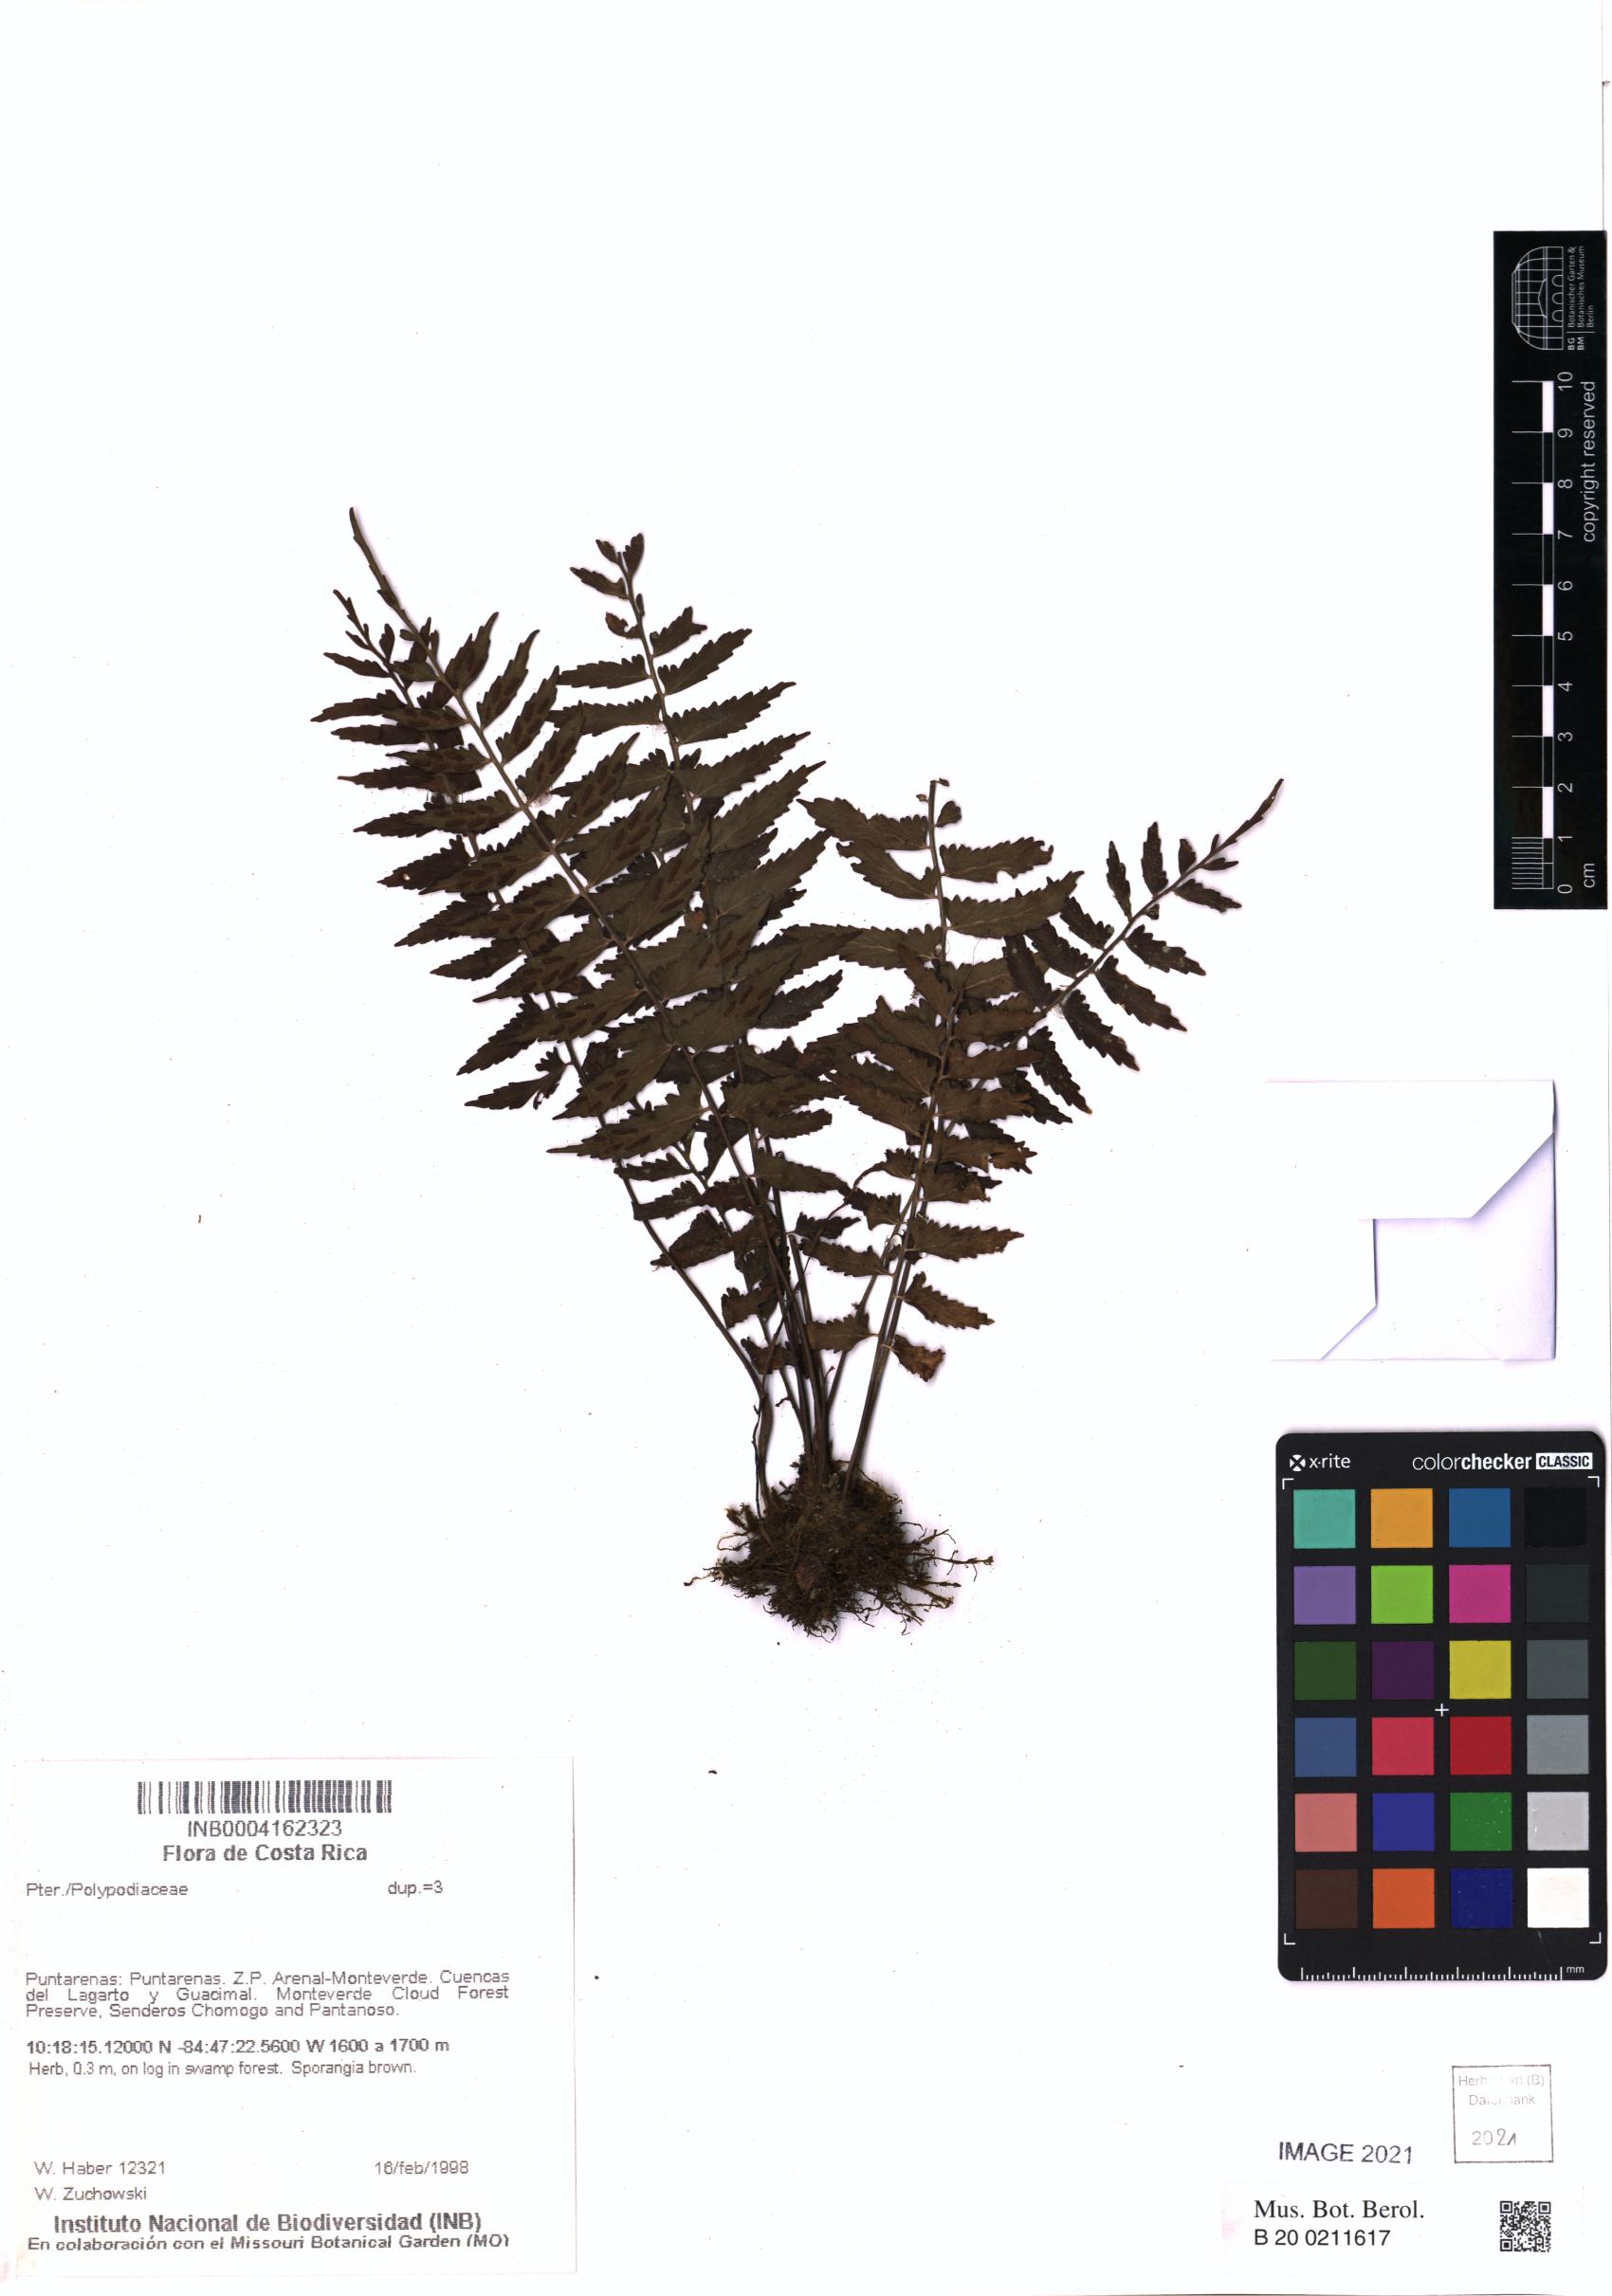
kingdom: Plantae
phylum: Tracheophyta
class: Polypodiopsida
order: Polypodiales
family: Polypodiaceae
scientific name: Polypodiaceae
